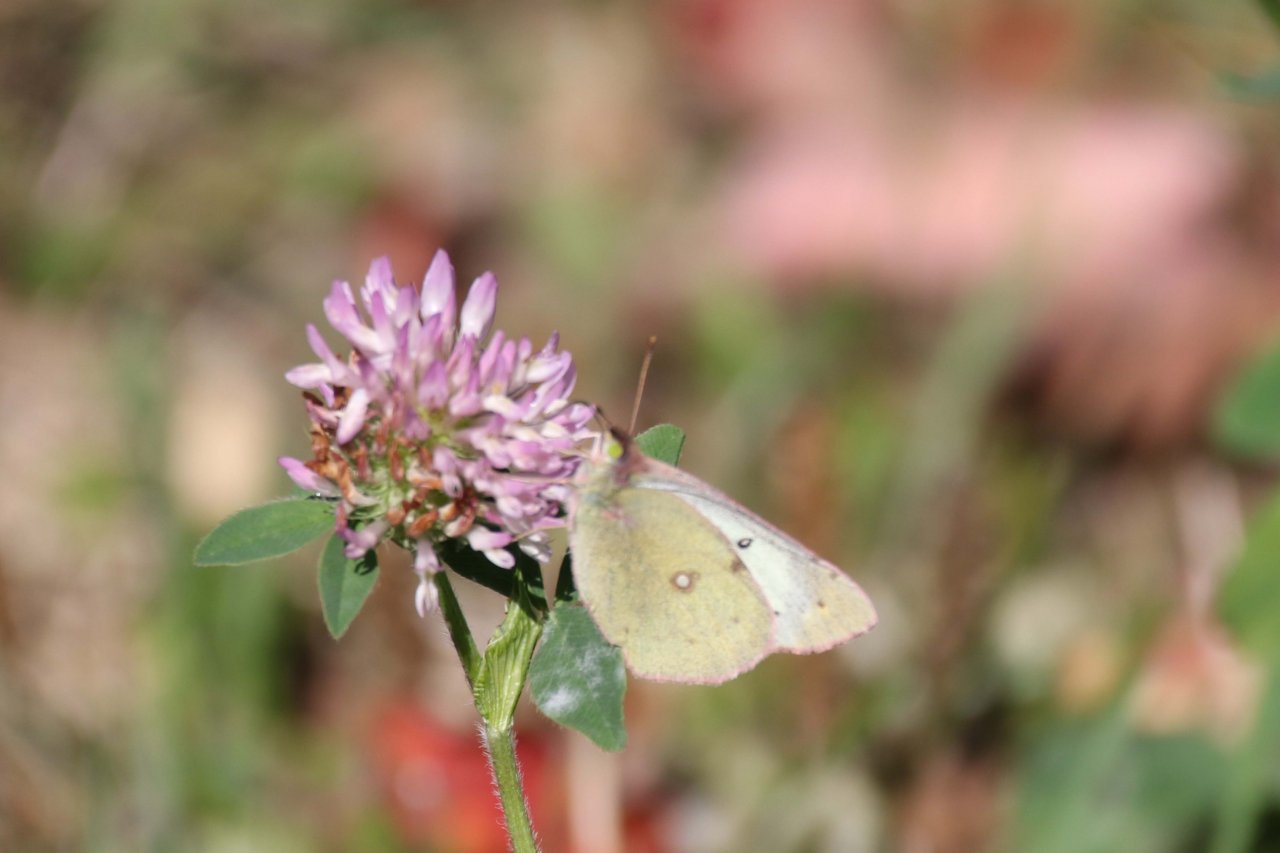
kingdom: Animalia
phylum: Arthropoda
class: Insecta
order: Lepidoptera
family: Pieridae
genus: Colias
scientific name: Colias philodice
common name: Clouded Sulphur
